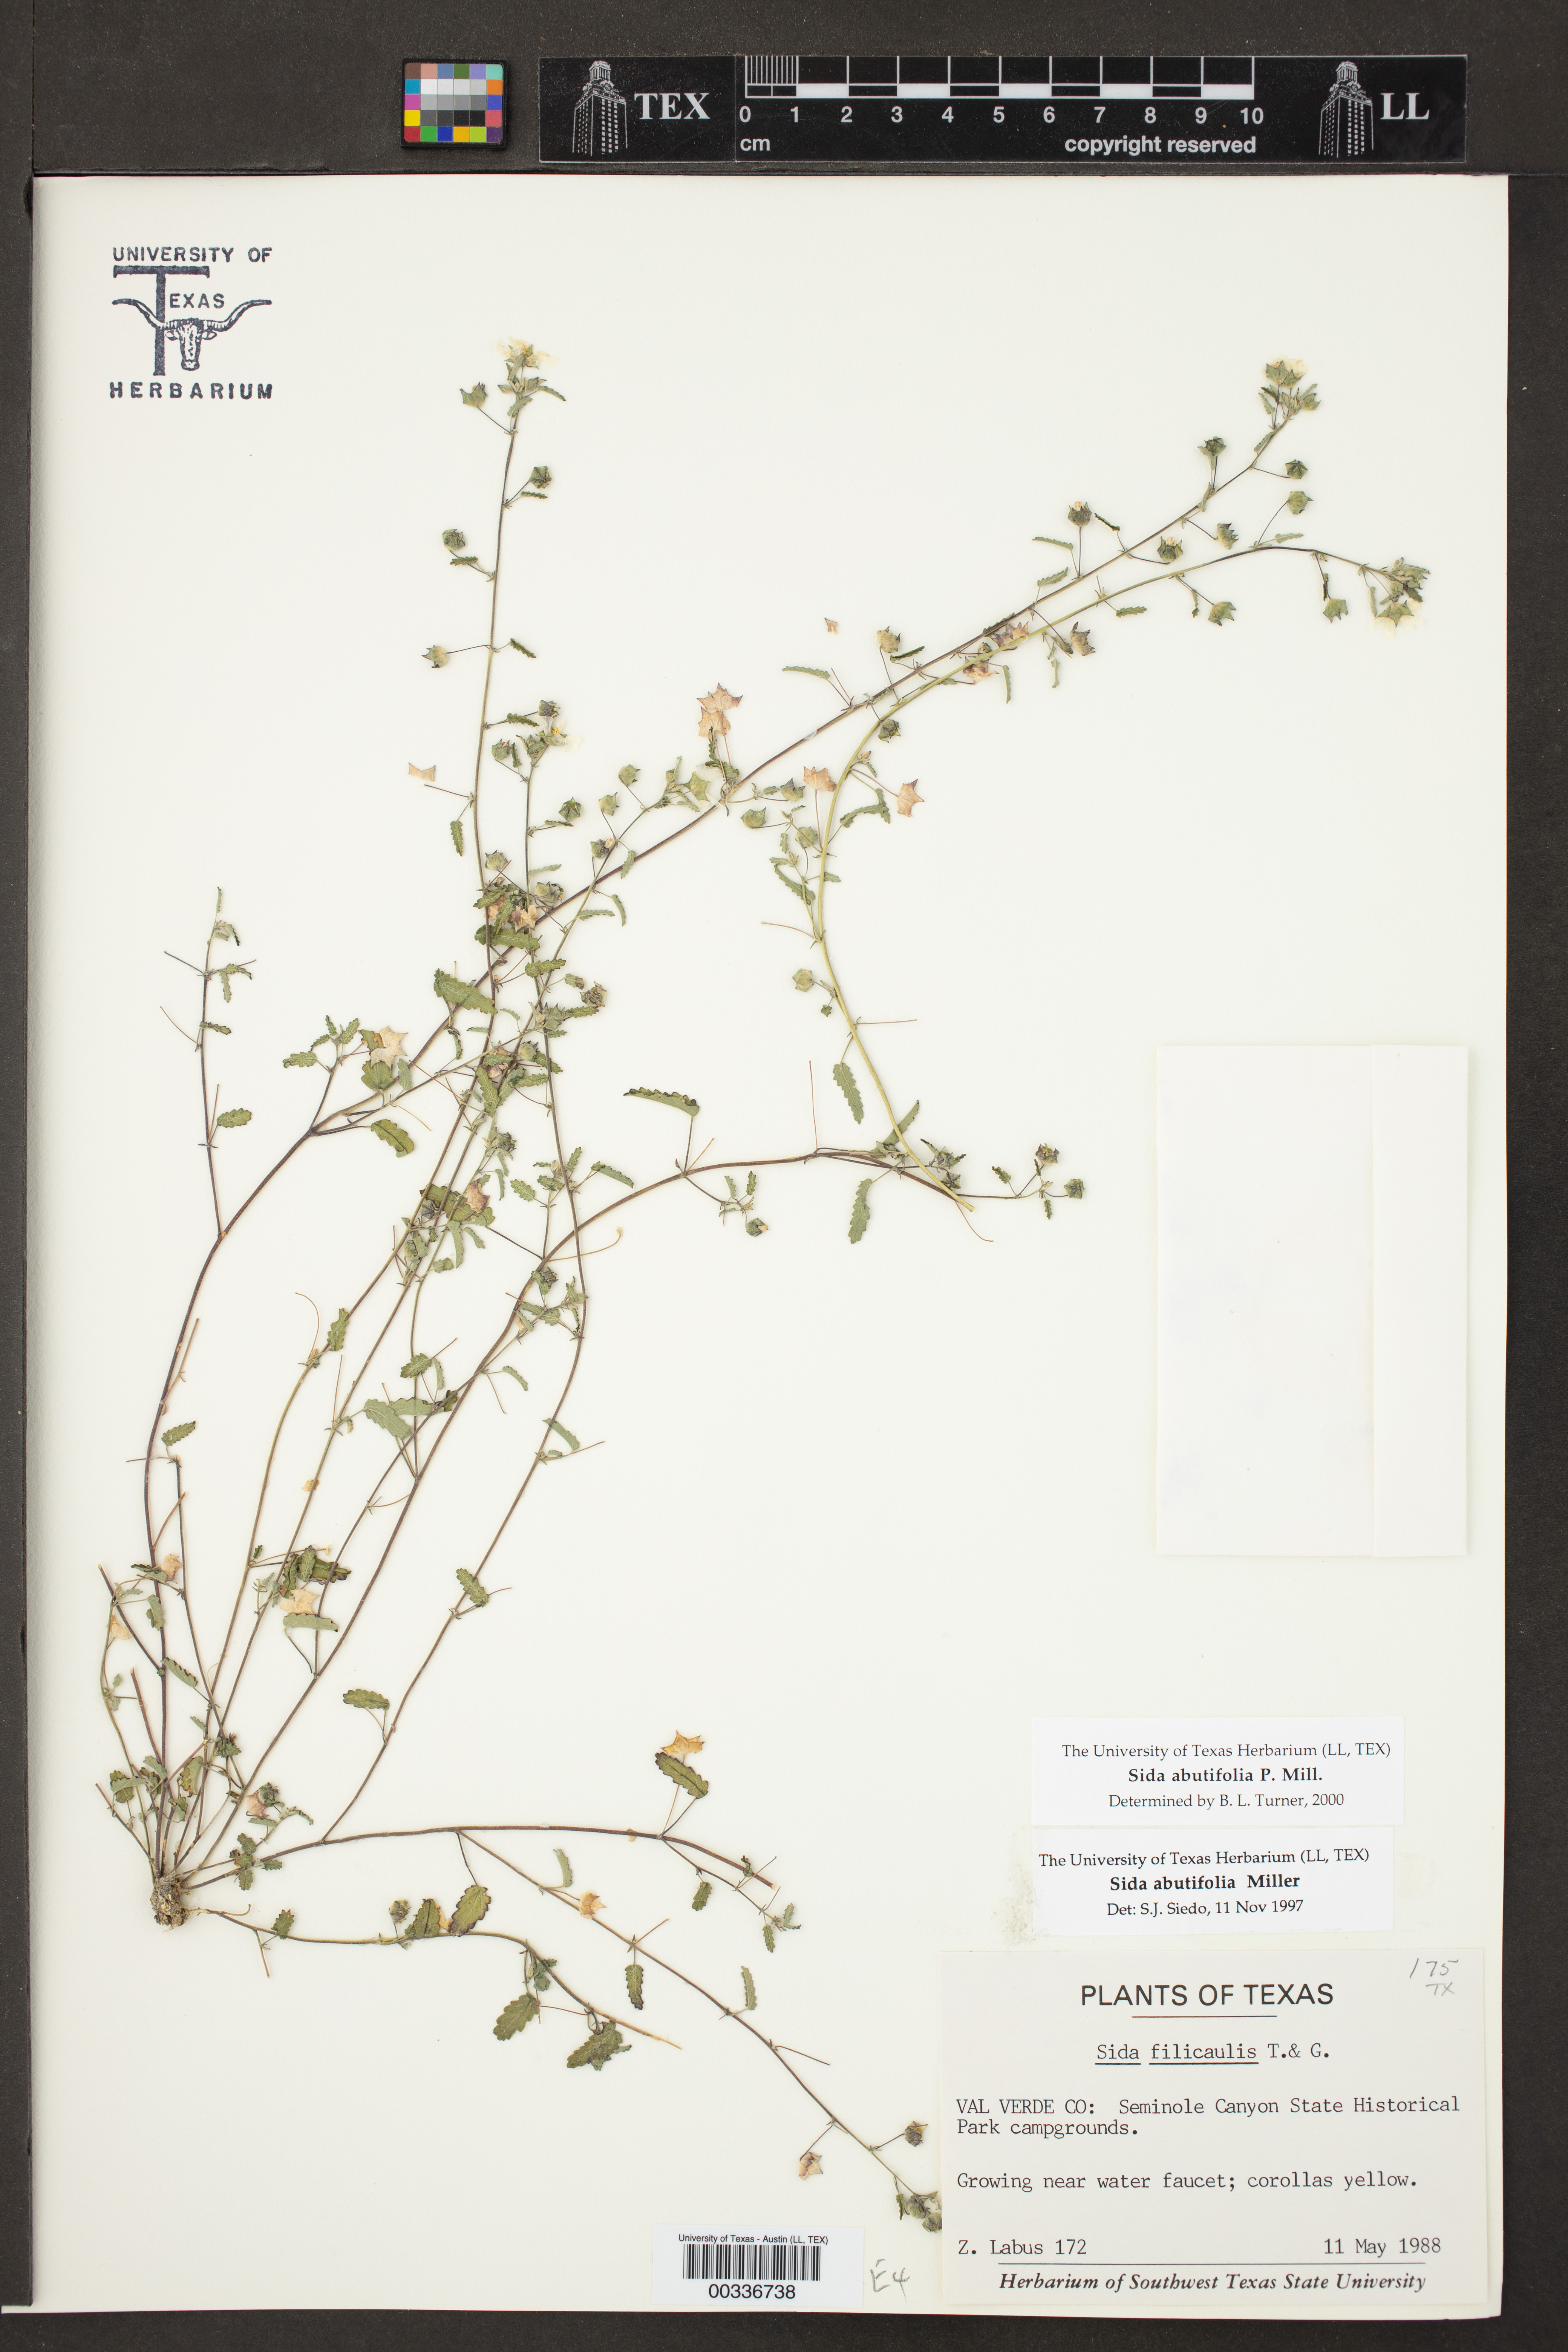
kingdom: Plantae
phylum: Tracheophyta
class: Magnoliopsida
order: Malvales
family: Malvaceae
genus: Sida
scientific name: Sida abutilifolia
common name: Spreading fanpetals
